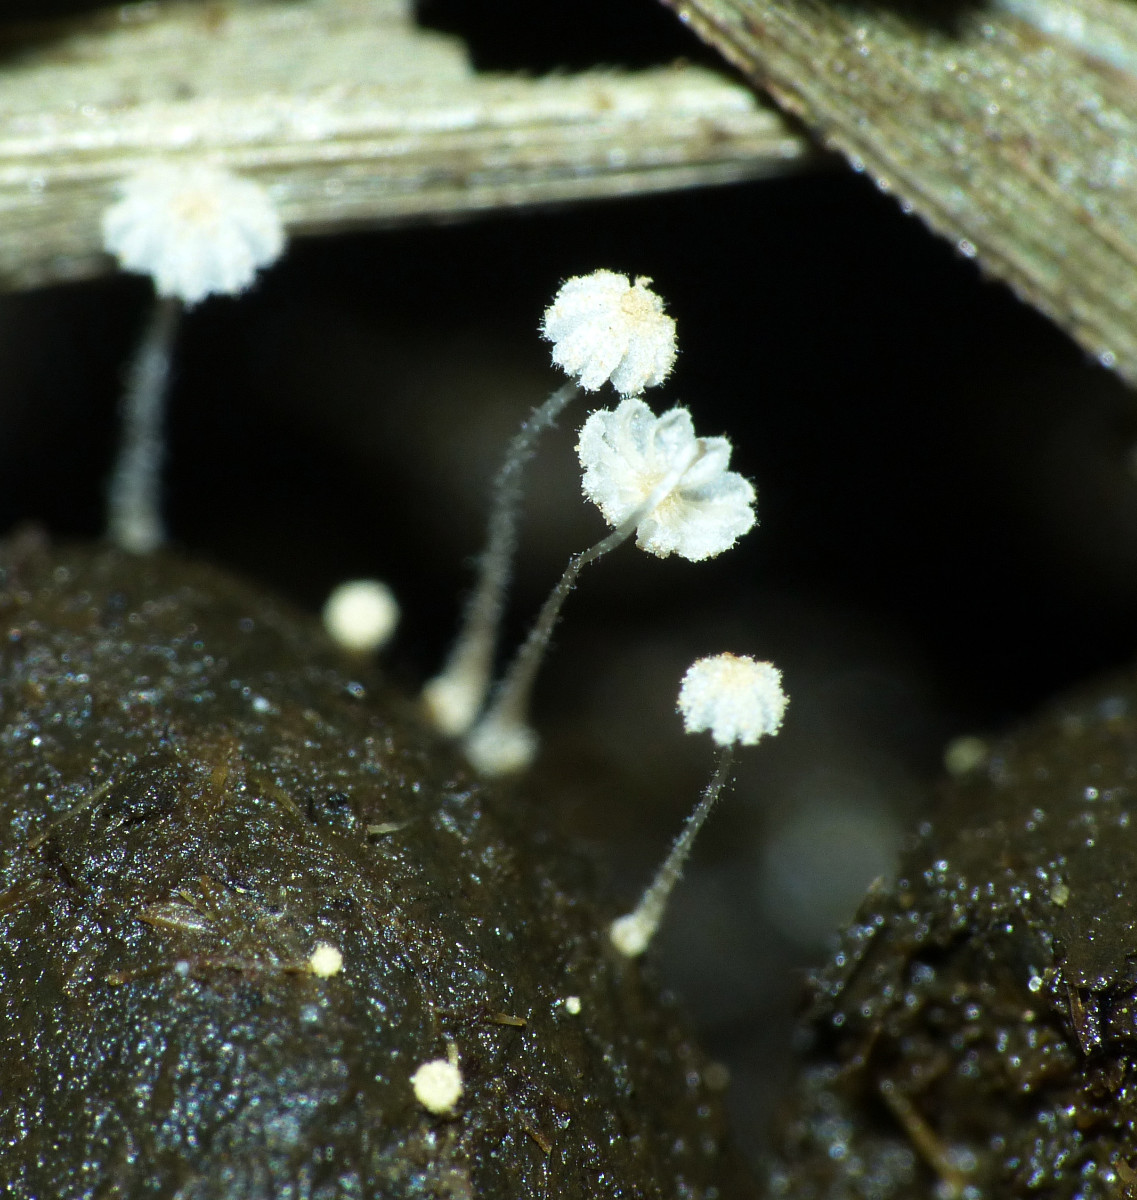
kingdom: Fungi
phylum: Basidiomycota
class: Agaricomycetes
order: Agaricales
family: Psathyrellaceae
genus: Coprinellus
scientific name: Coprinellus
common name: blækhat
